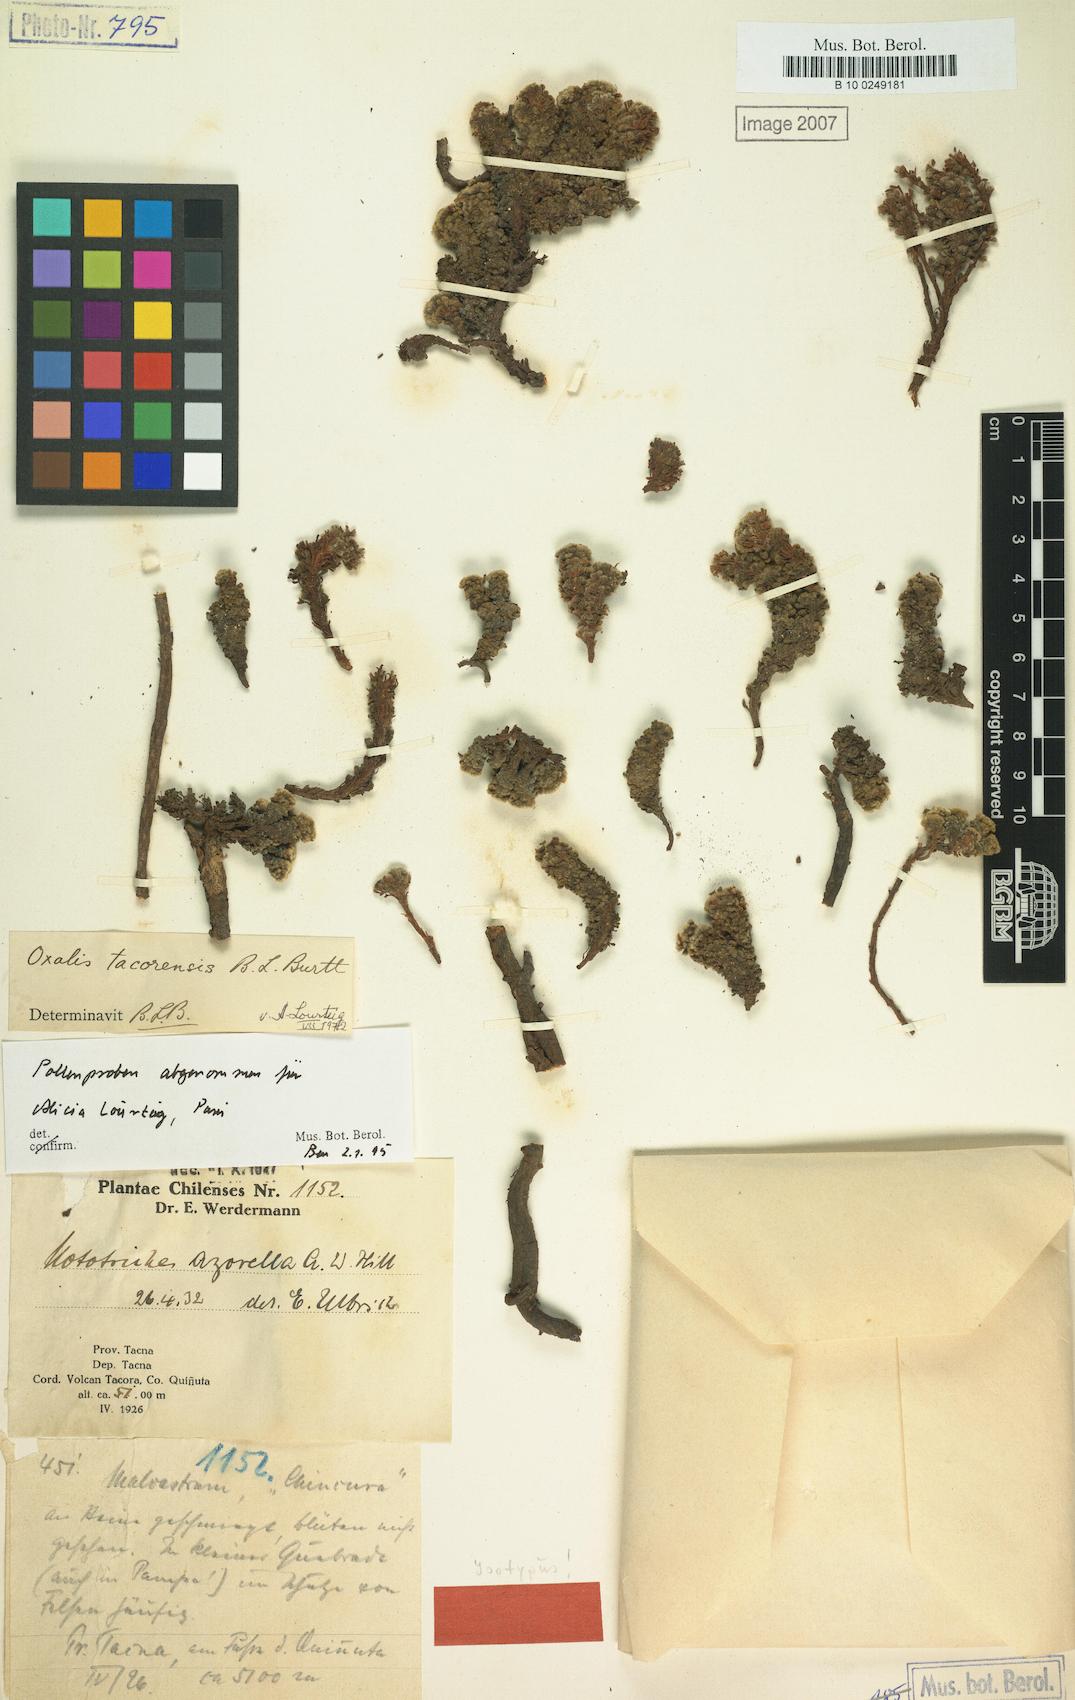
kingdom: Plantae
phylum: Tracheophyta
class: Magnoliopsida
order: Oxalidales
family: Oxalidaceae
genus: Oxalis
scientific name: Oxalis tacorensis
